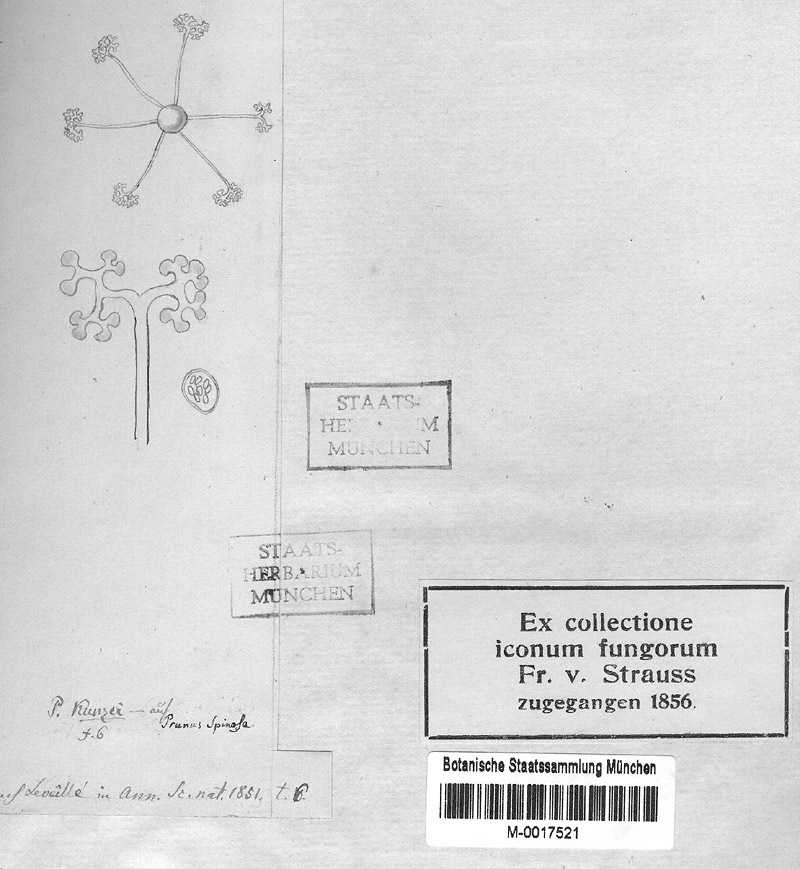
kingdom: Fungi
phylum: Ascomycota
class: Leotiomycetes
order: Helotiales
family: Erysiphaceae
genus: Podosphaera
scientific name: Podosphaera tridactyla
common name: Plum mildew
